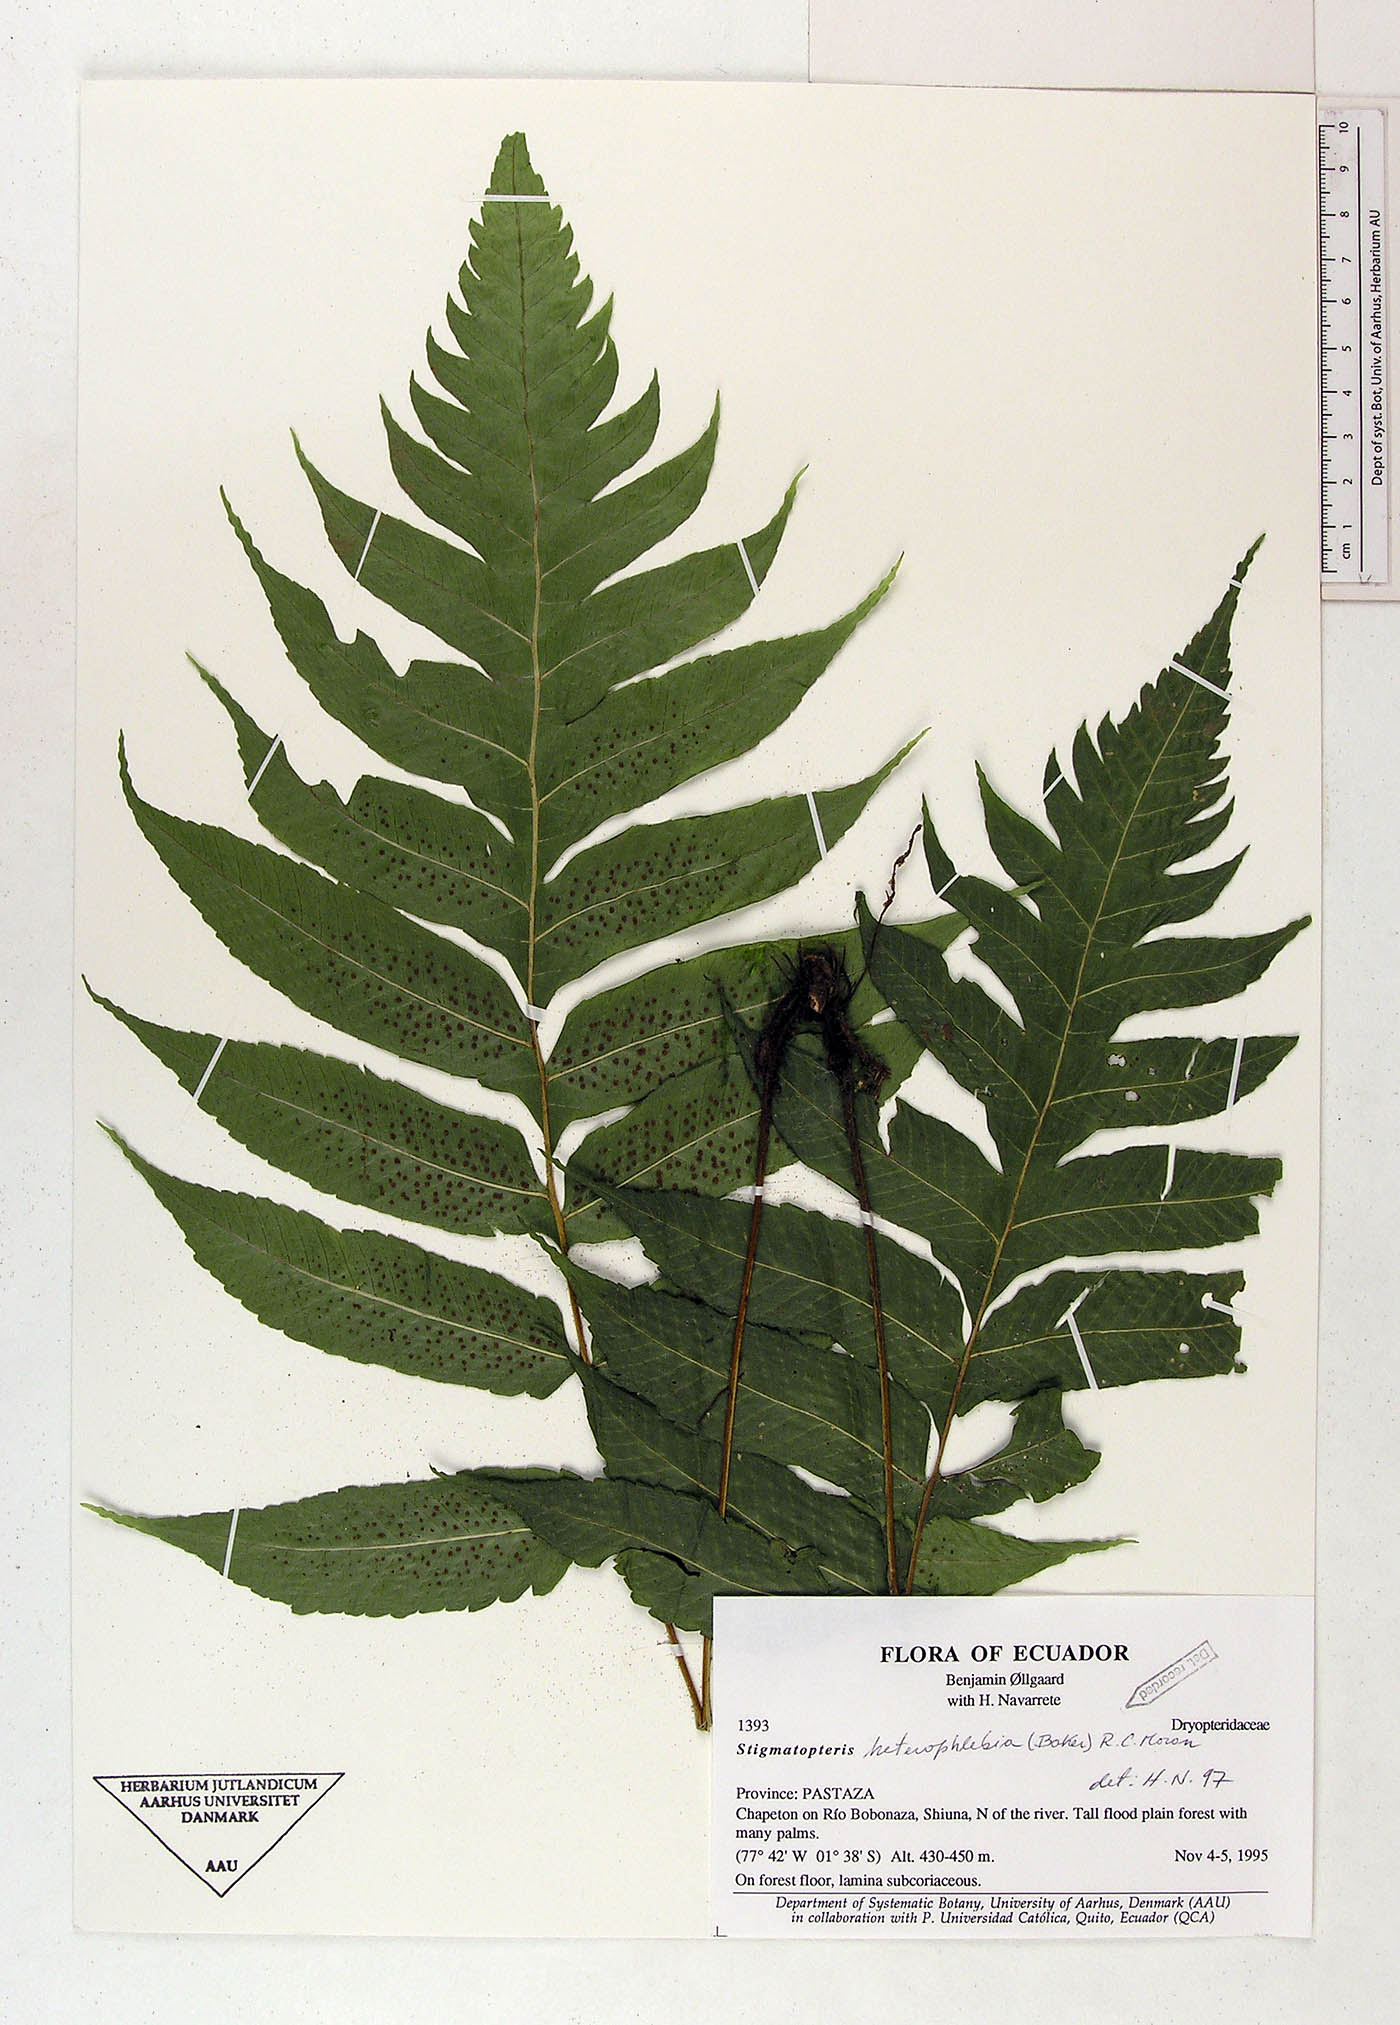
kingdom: Plantae
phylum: Tracheophyta
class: Polypodiopsida
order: Polypodiales
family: Dryopteridaceae
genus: Stigmatopteris
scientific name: Stigmatopteris heterophlebia
